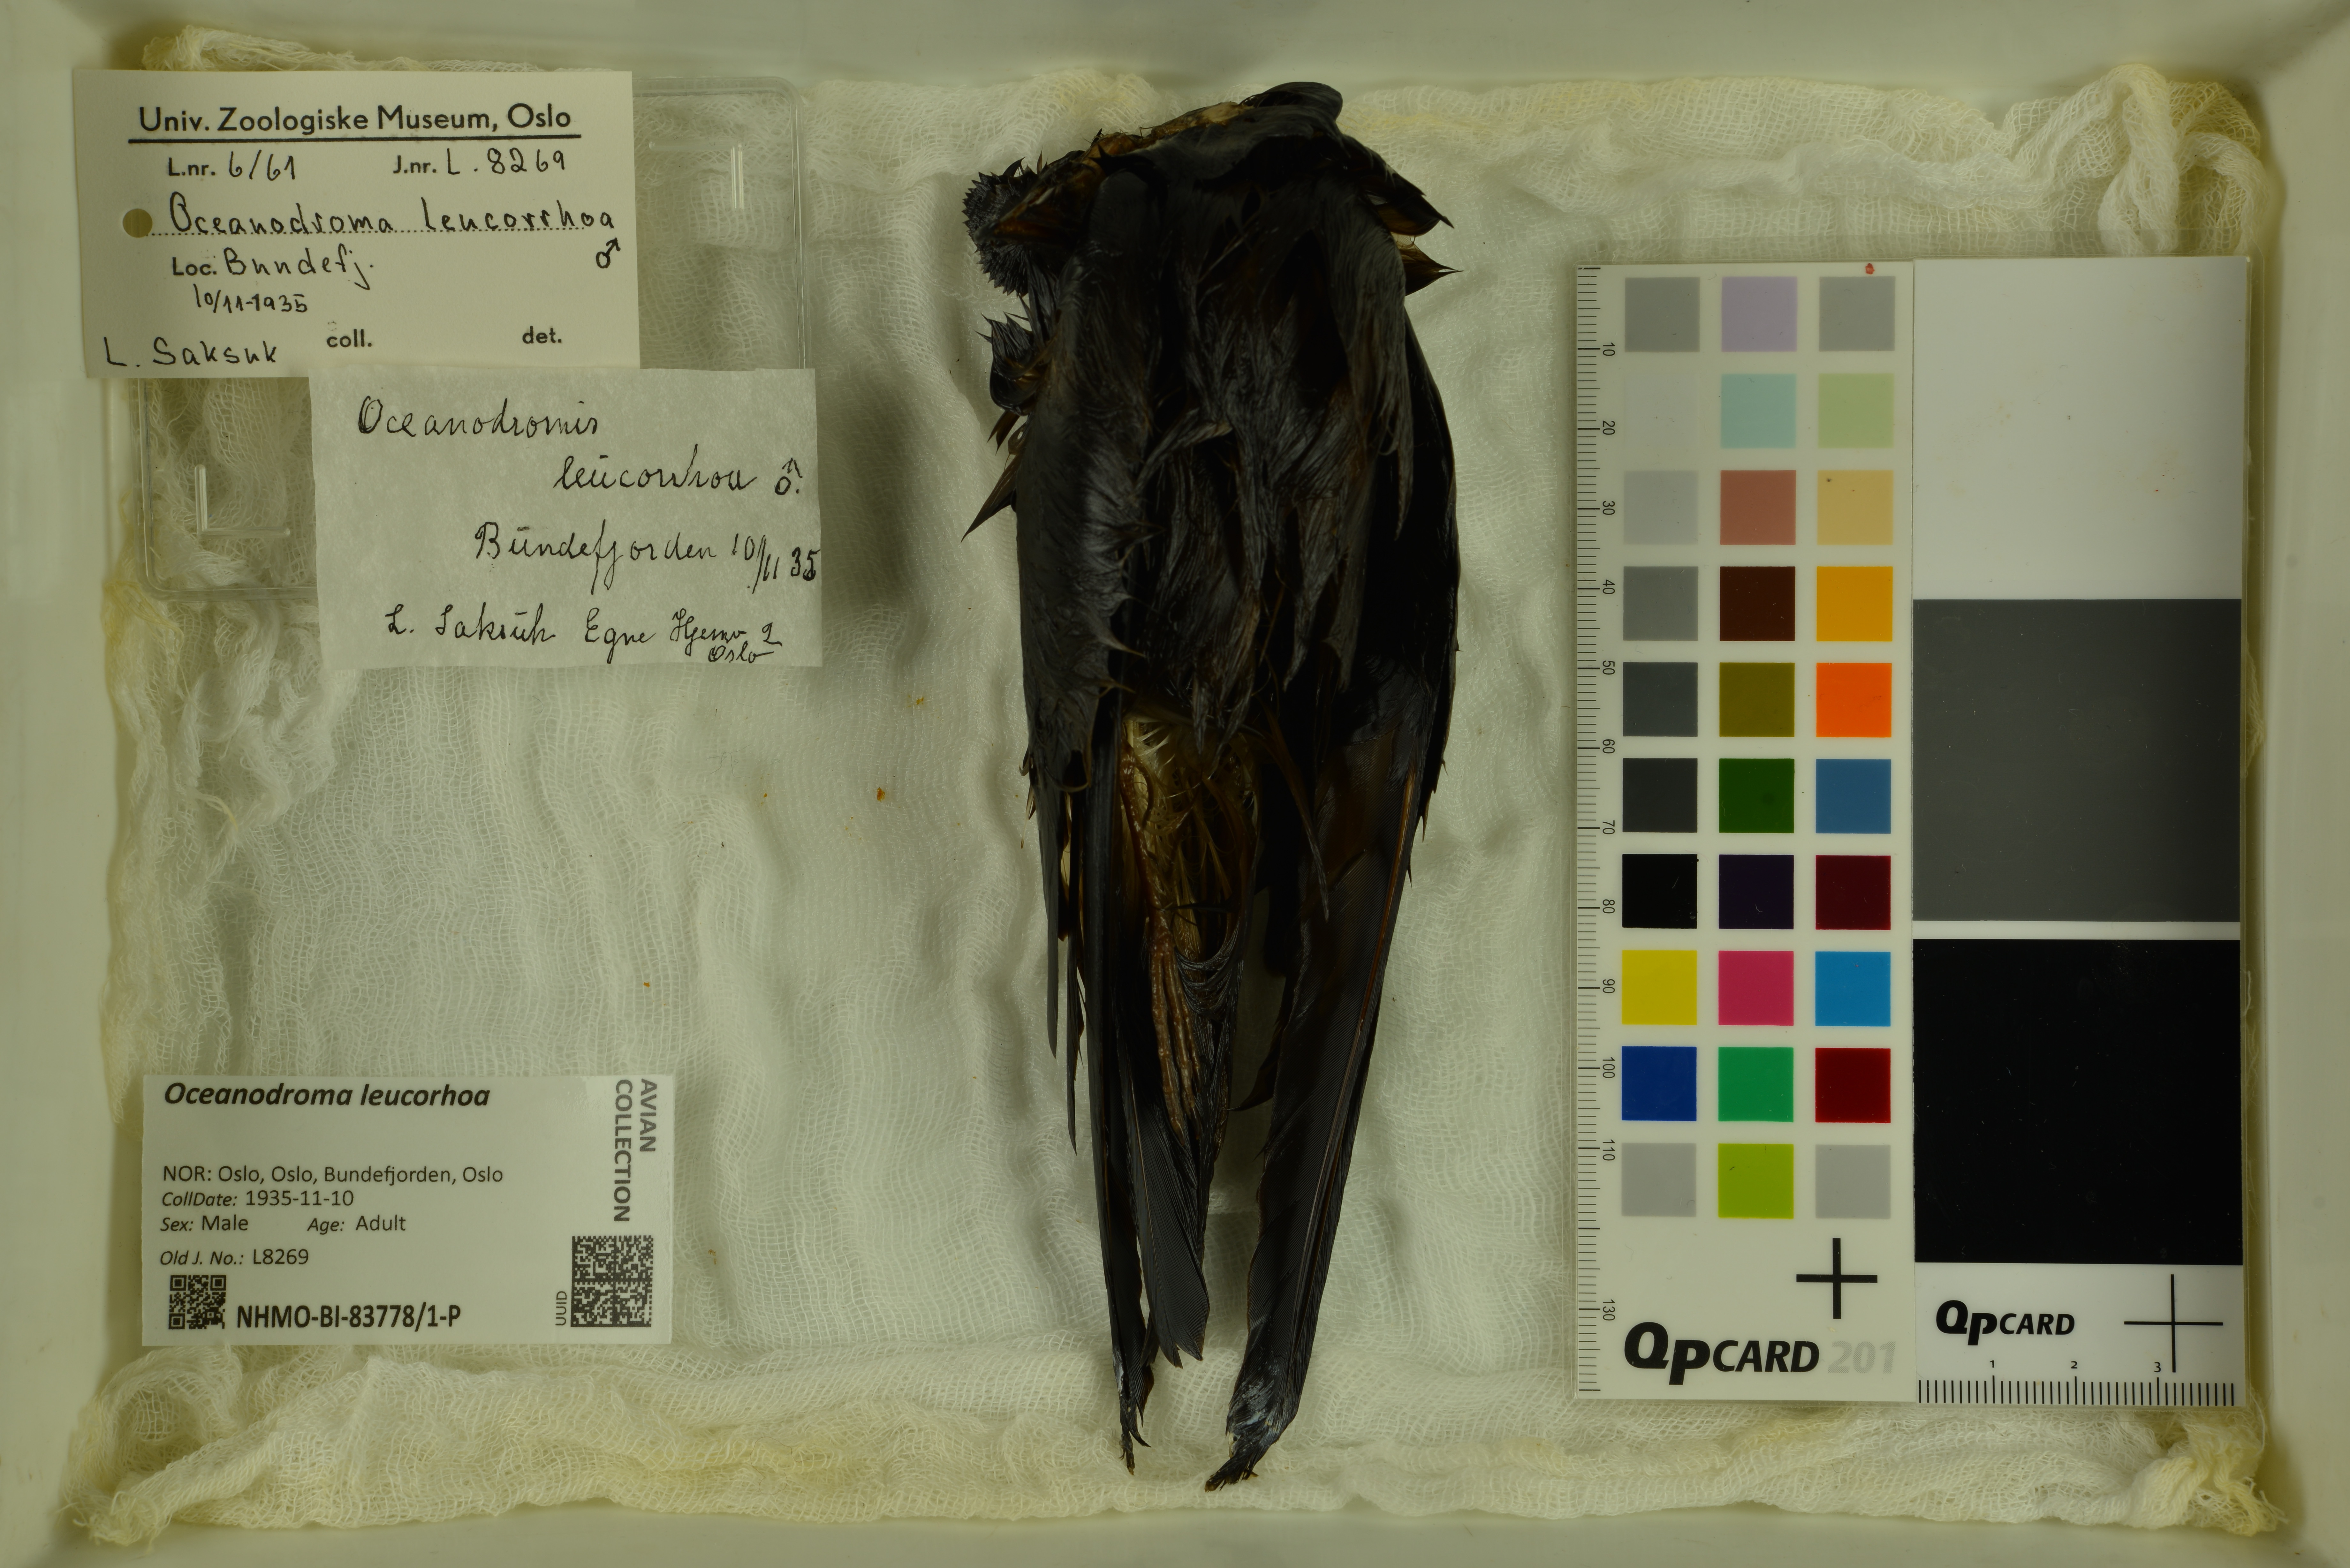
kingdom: Animalia
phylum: Chordata
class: Aves
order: Procellariiformes
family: Hydrobatidae
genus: Oceanodroma
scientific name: Oceanodroma leucorhoa
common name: Leach's storm-petrel
